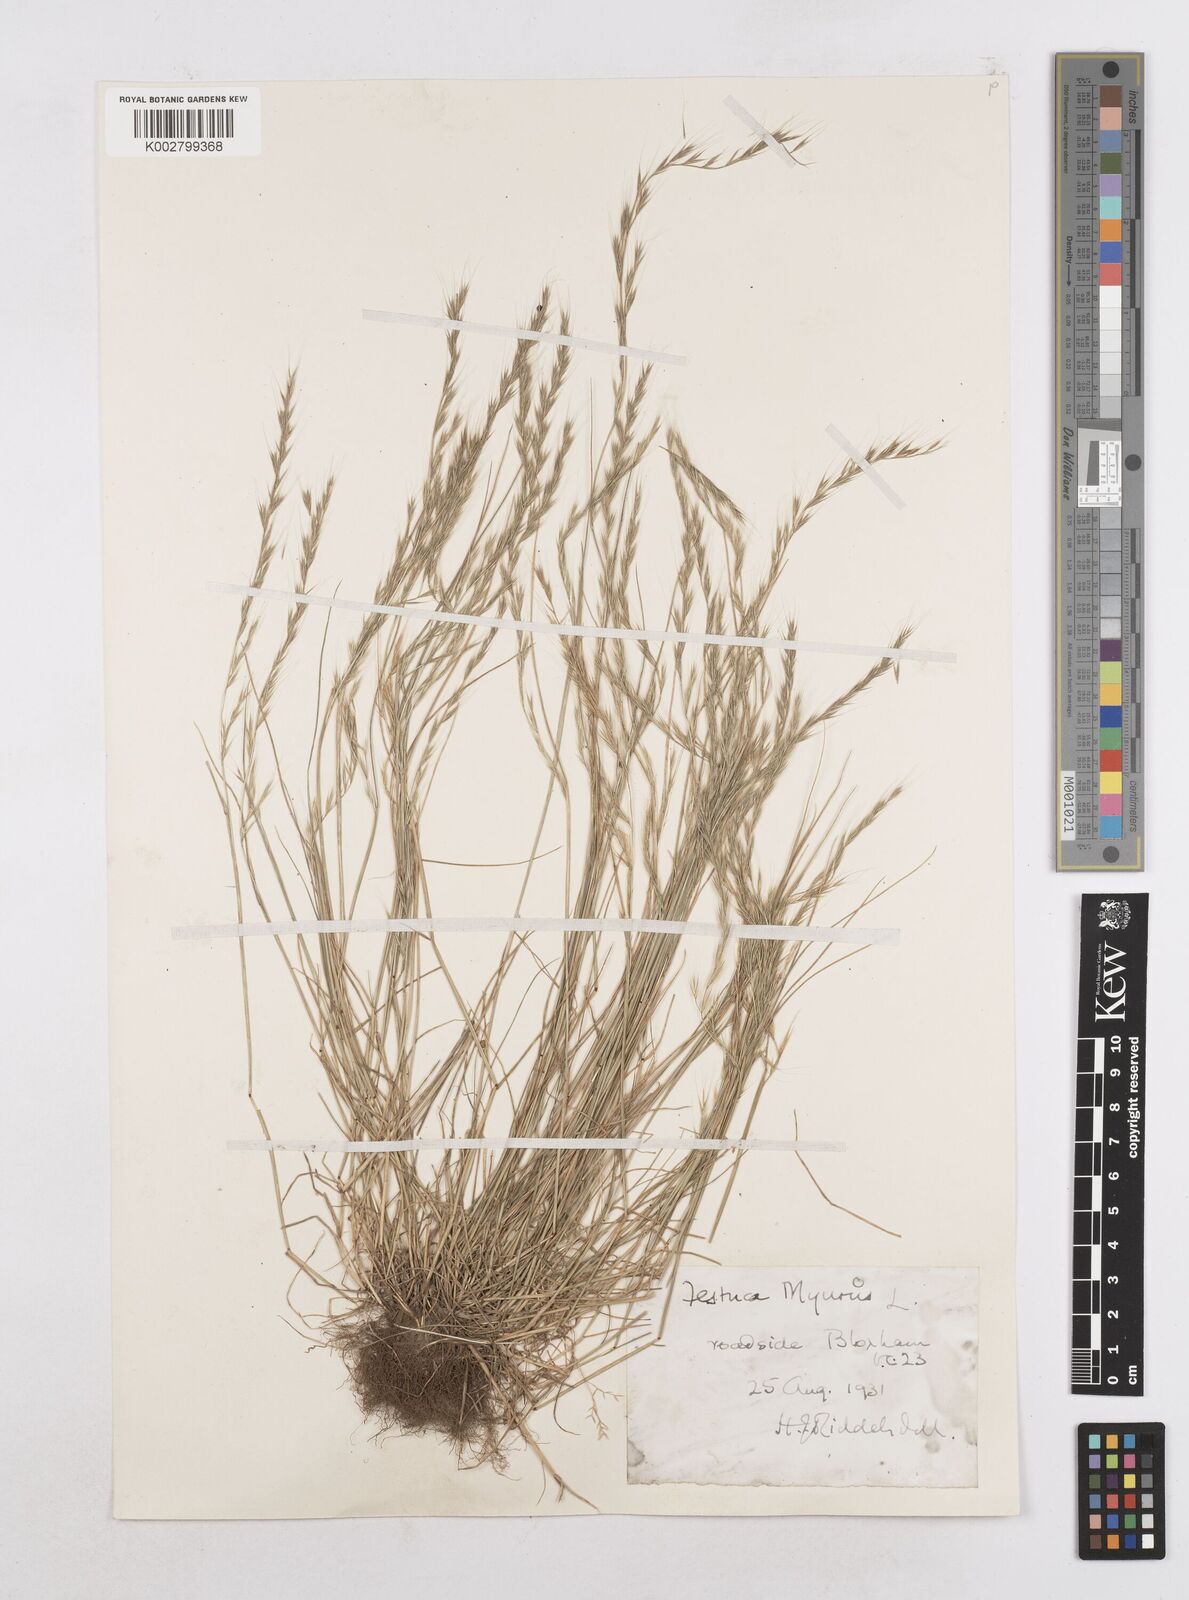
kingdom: Plantae
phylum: Tracheophyta
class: Liliopsida
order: Poales
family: Poaceae
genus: Festuca
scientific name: Festuca myuros
